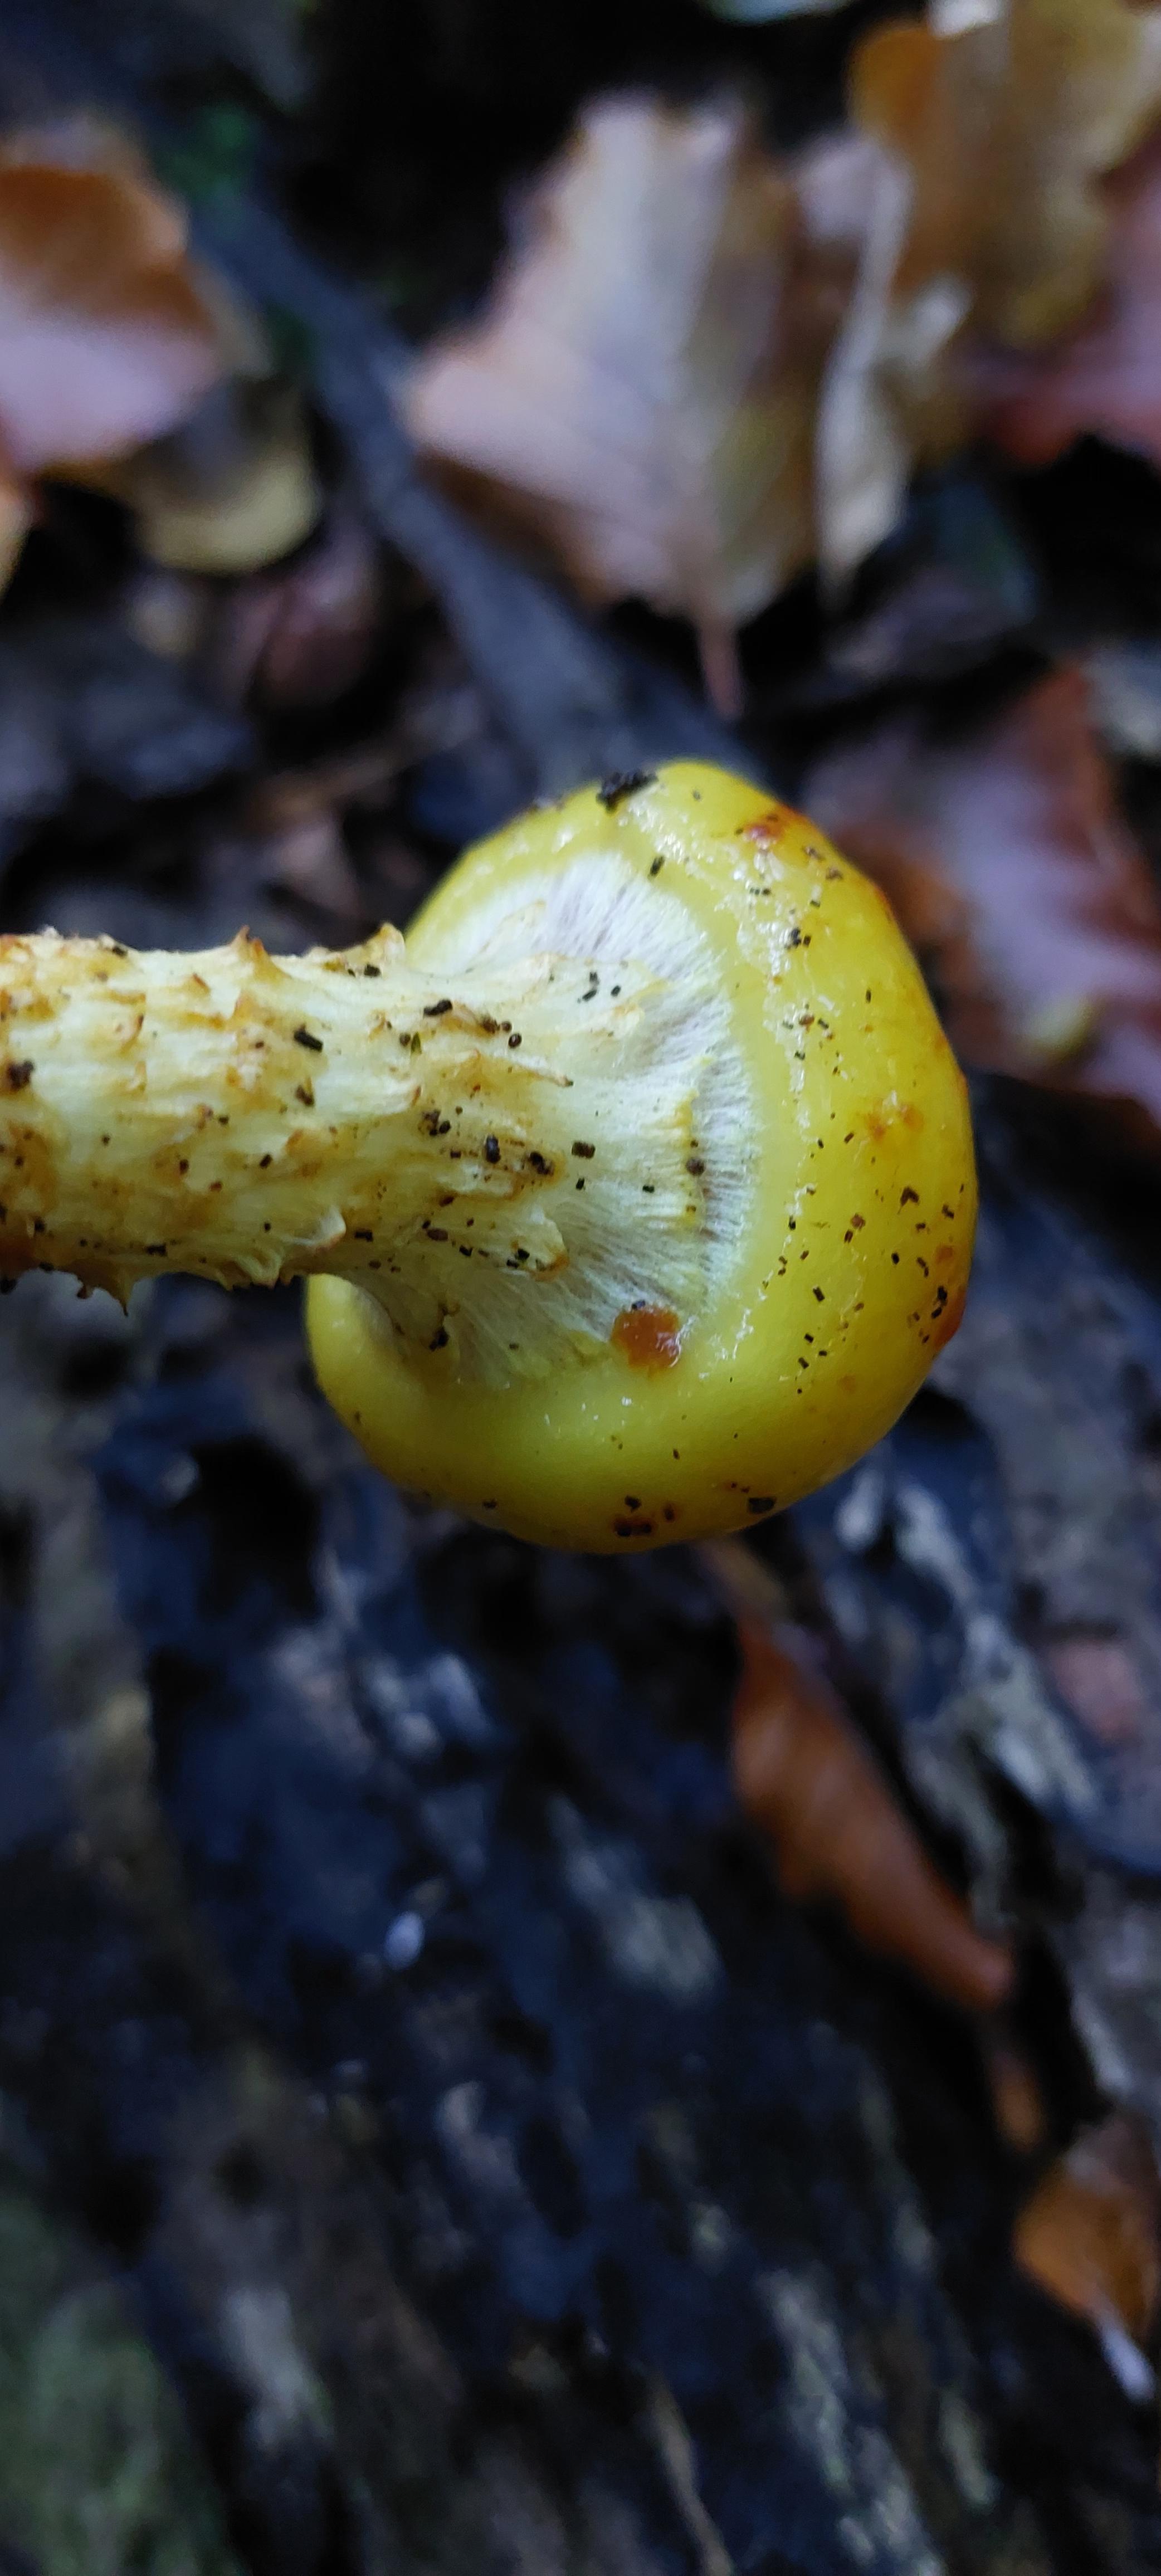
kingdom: Fungi
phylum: Basidiomycota
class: Agaricomycetes
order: Agaricales
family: Strophariaceae
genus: Pholiota
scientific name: Pholiota adiposa
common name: højtsiddende skælhat
